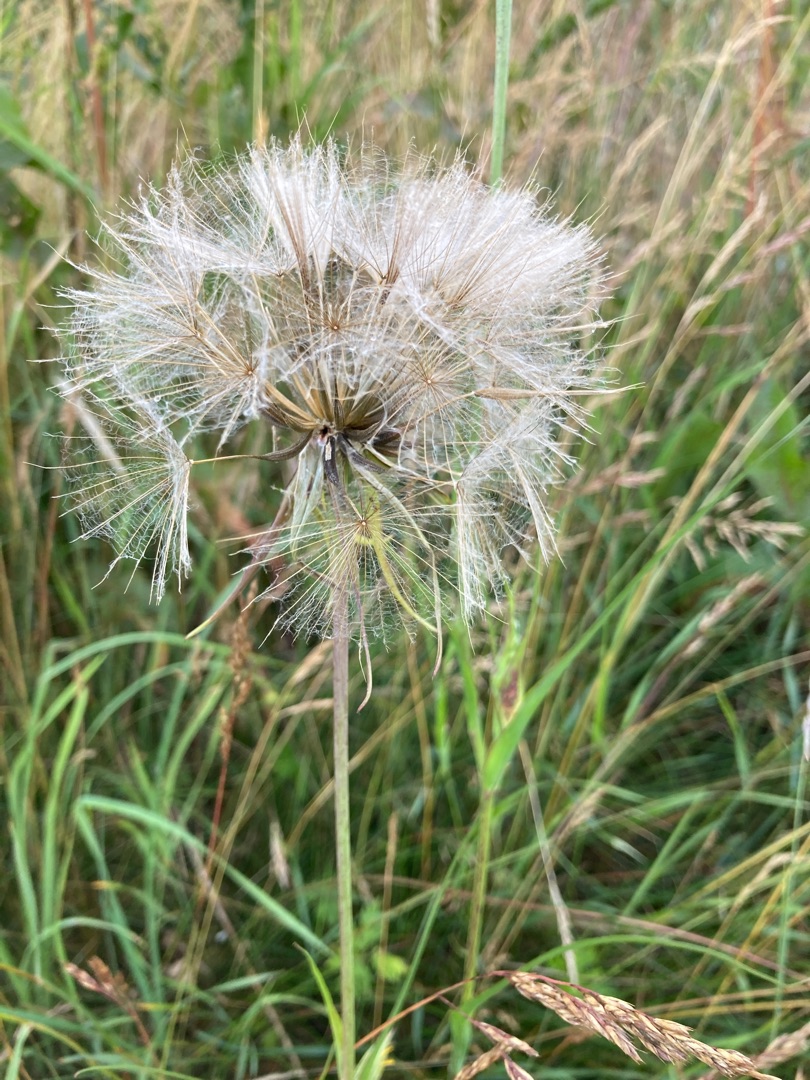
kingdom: Plantae
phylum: Tracheophyta
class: Magnoliopsida
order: Asterales
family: Asteraceae
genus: Tragopogon
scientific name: Tragopogon pratensis
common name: Gedeskæg
